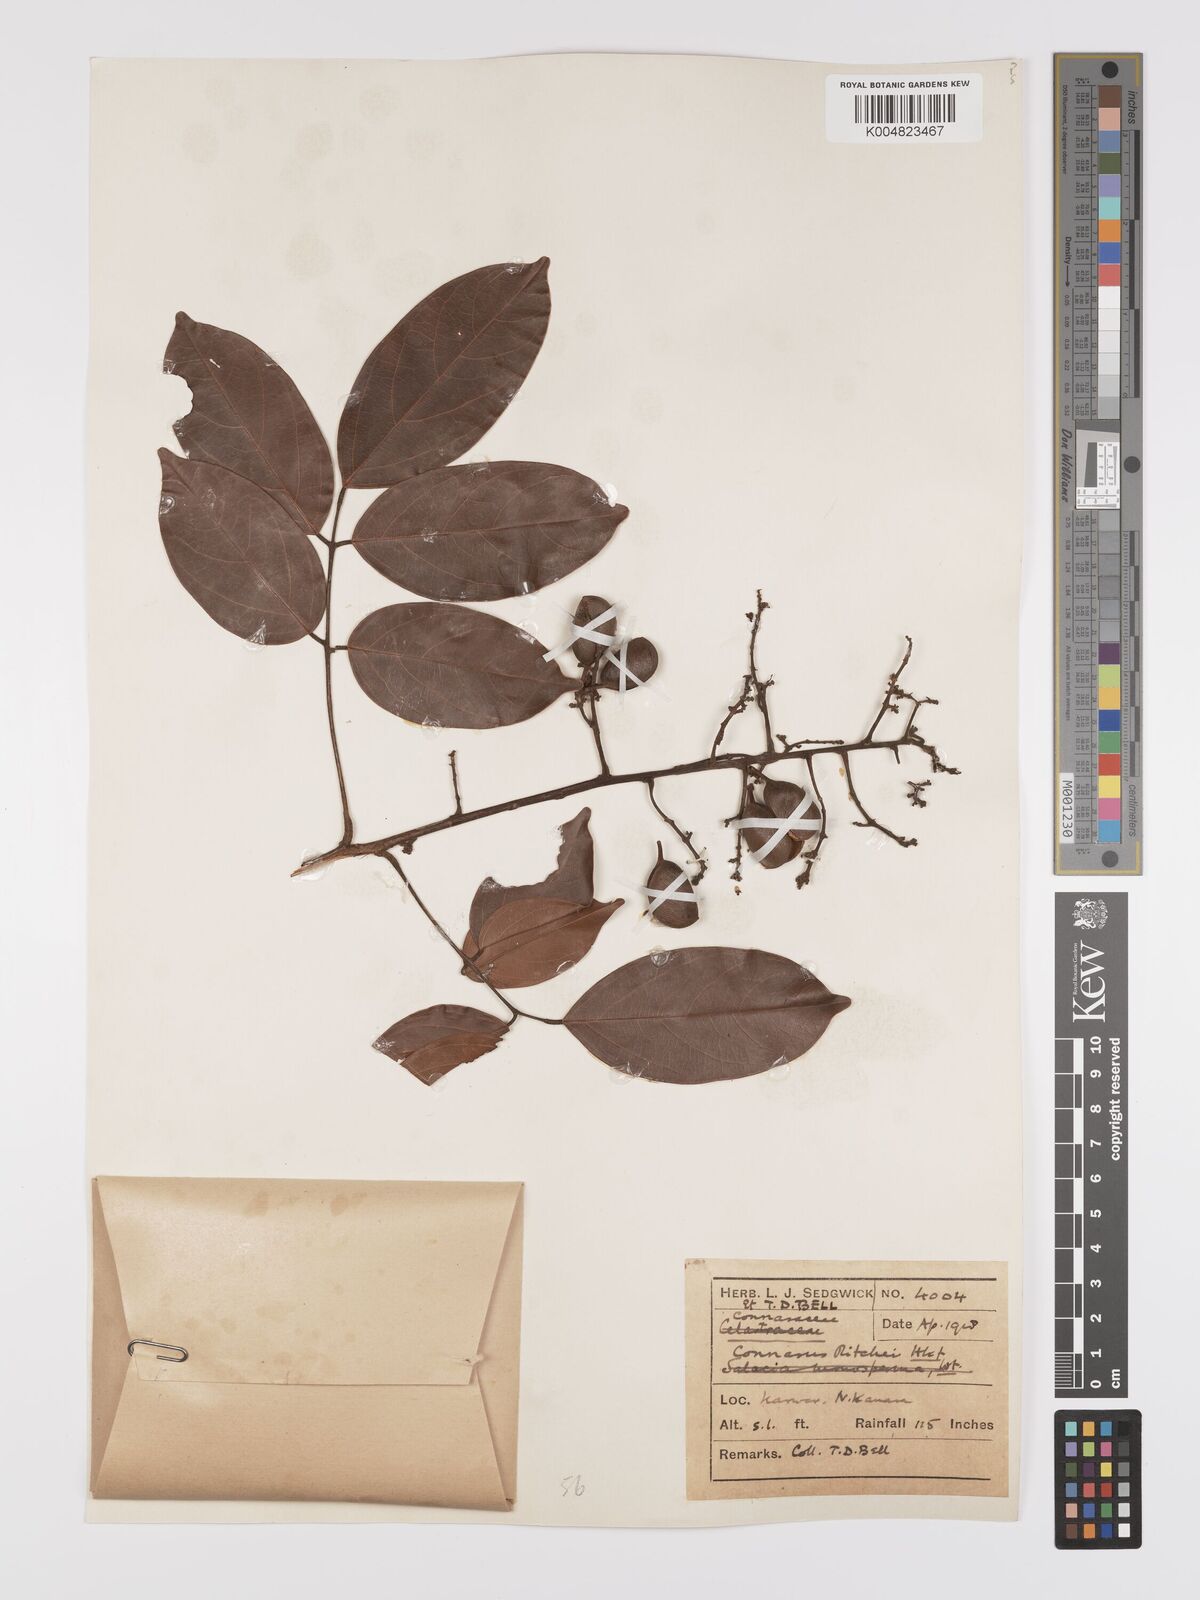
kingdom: Plantae
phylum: Tracheophyta
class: Magnoliopsida
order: Oxalidales
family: Connaraceae
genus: Connarus
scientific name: Connarus wightii
